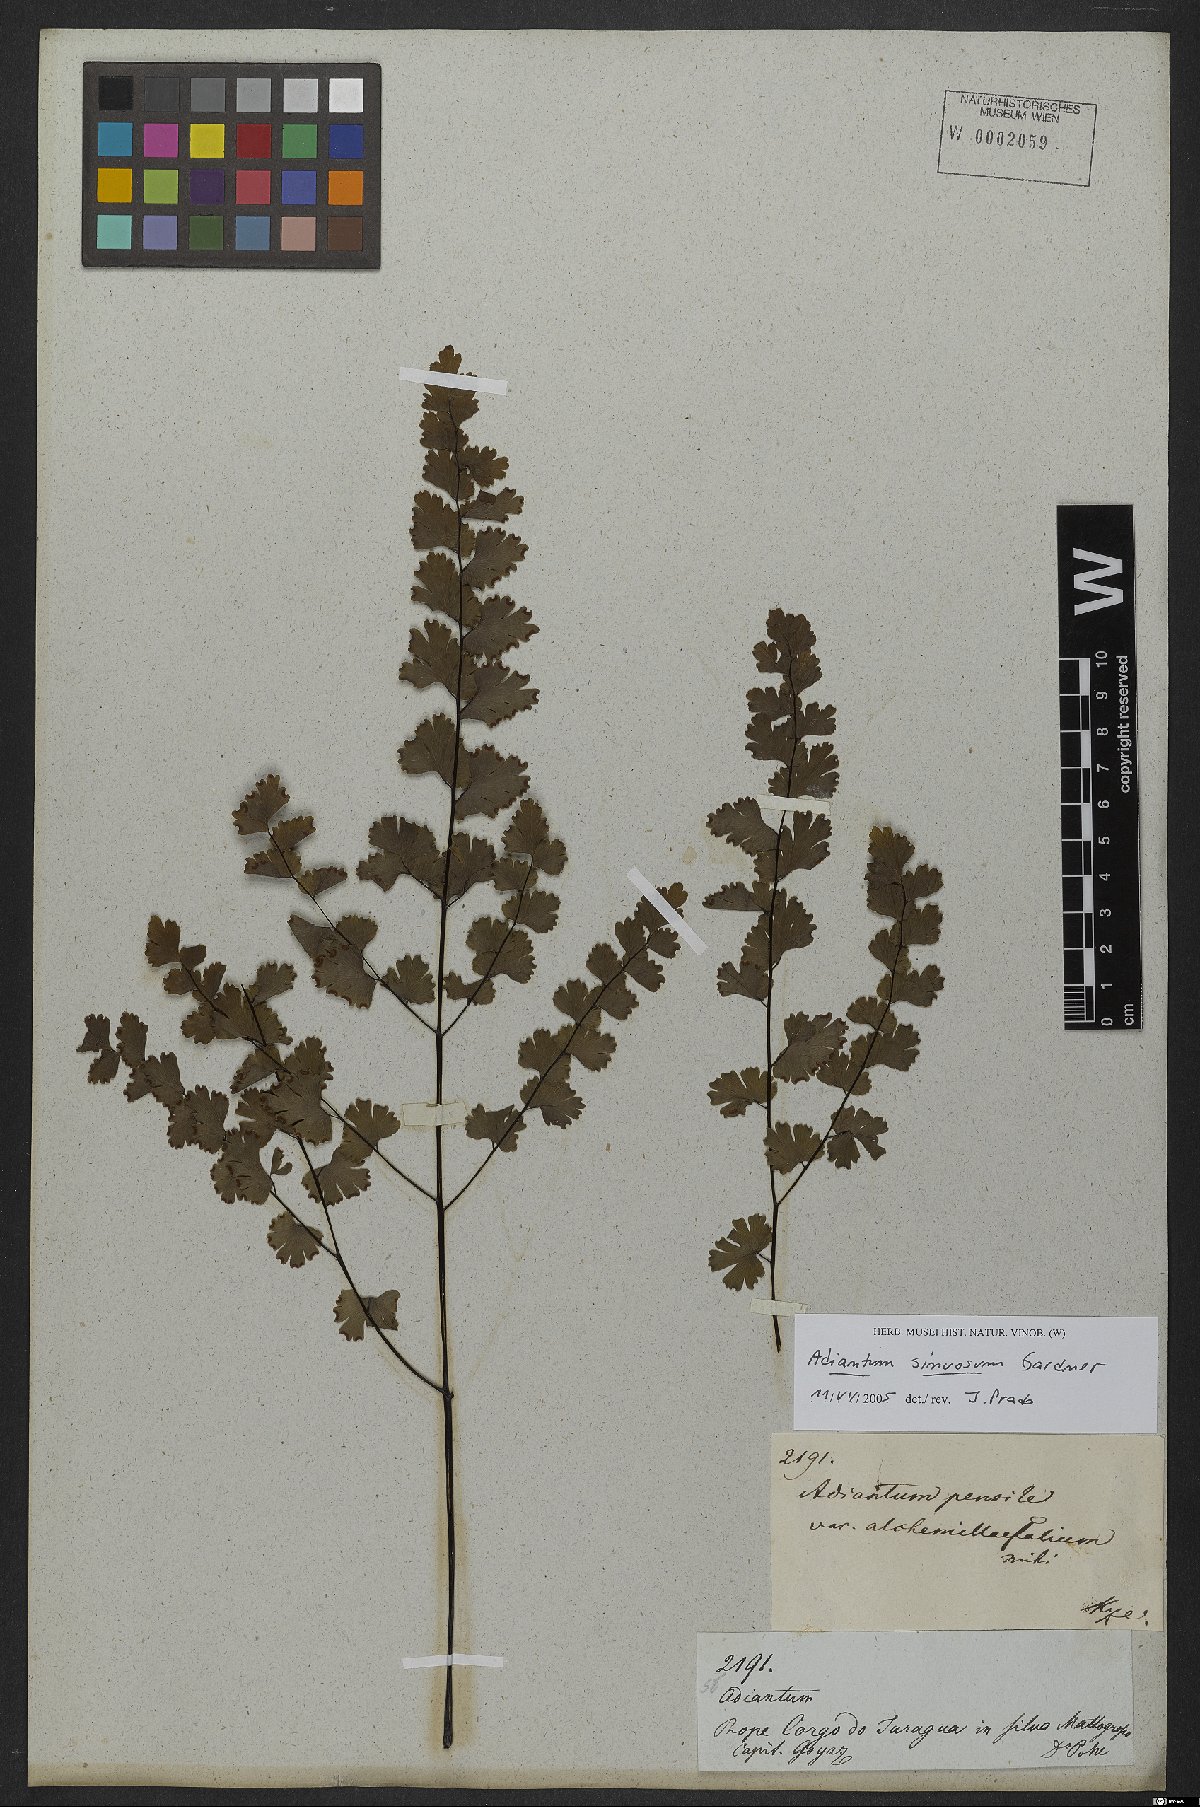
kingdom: Plantae
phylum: Tracheophyta
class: Polypodiopsida
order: Polypodiales
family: Pteridaceae
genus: Adiantum
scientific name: Adiantum sinuosum
